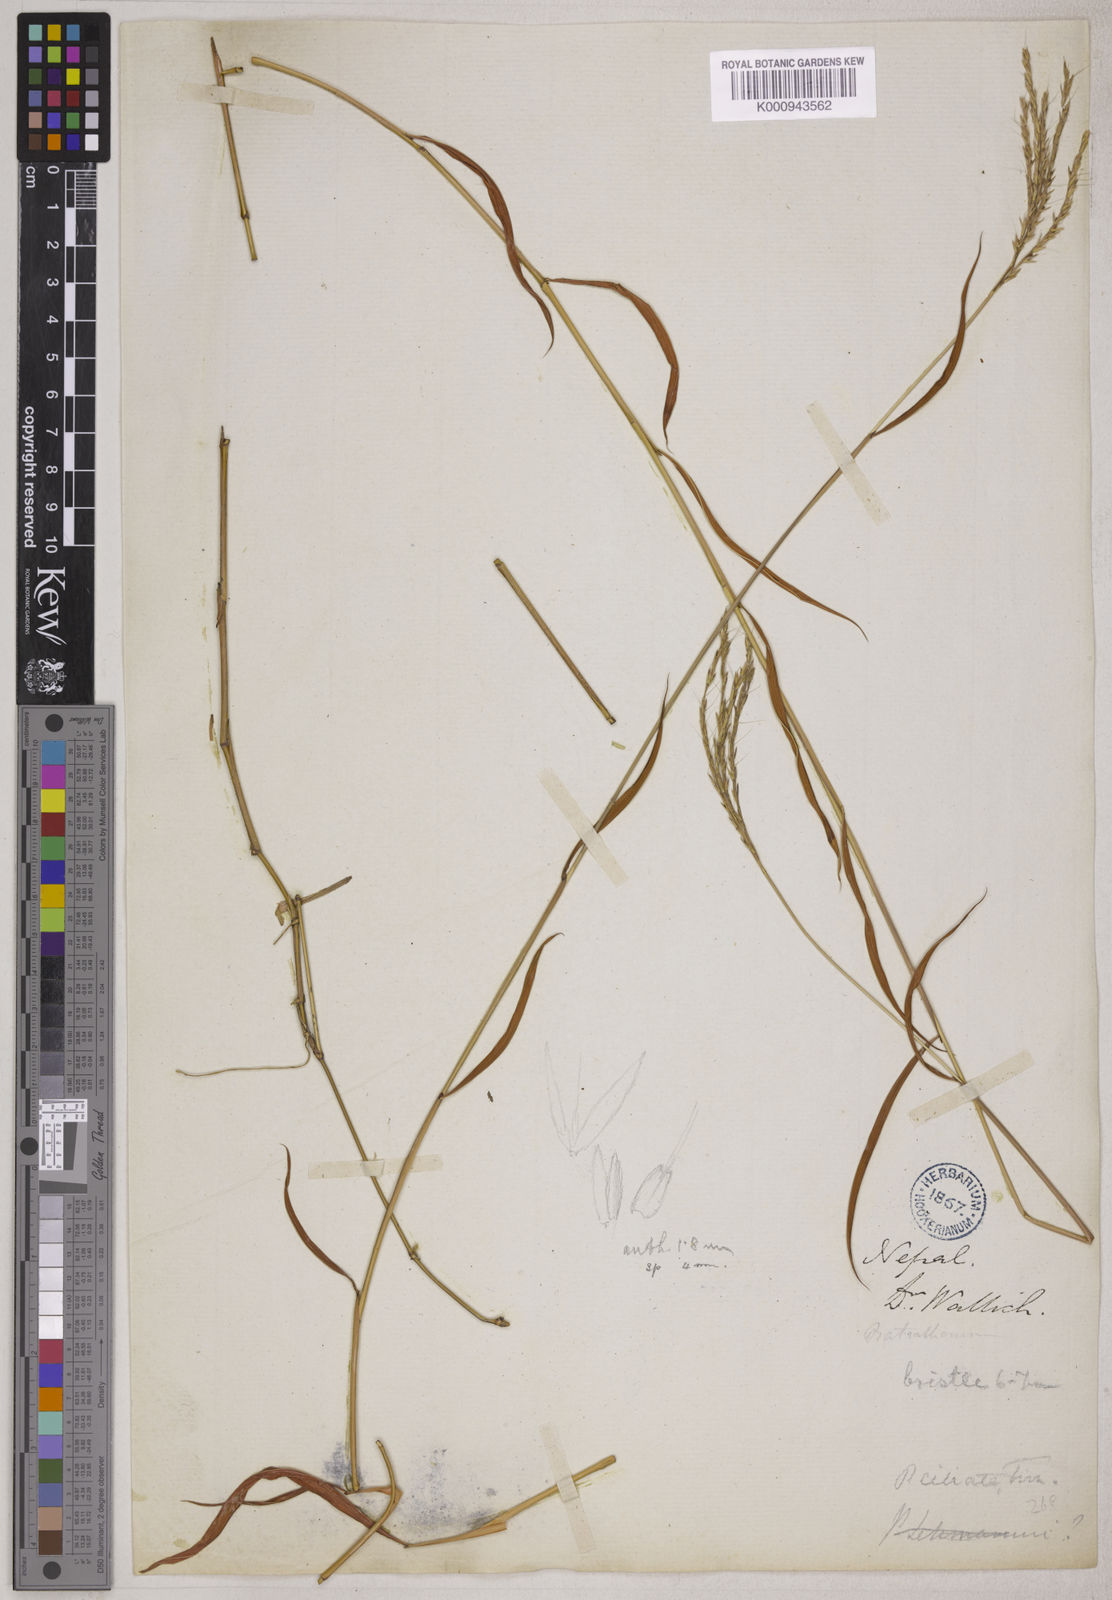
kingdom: Plantae
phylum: Tracheophyta
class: Liliopsida
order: Poales
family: Poaceae
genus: Microstegium
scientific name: Microstegium fasciculatum
